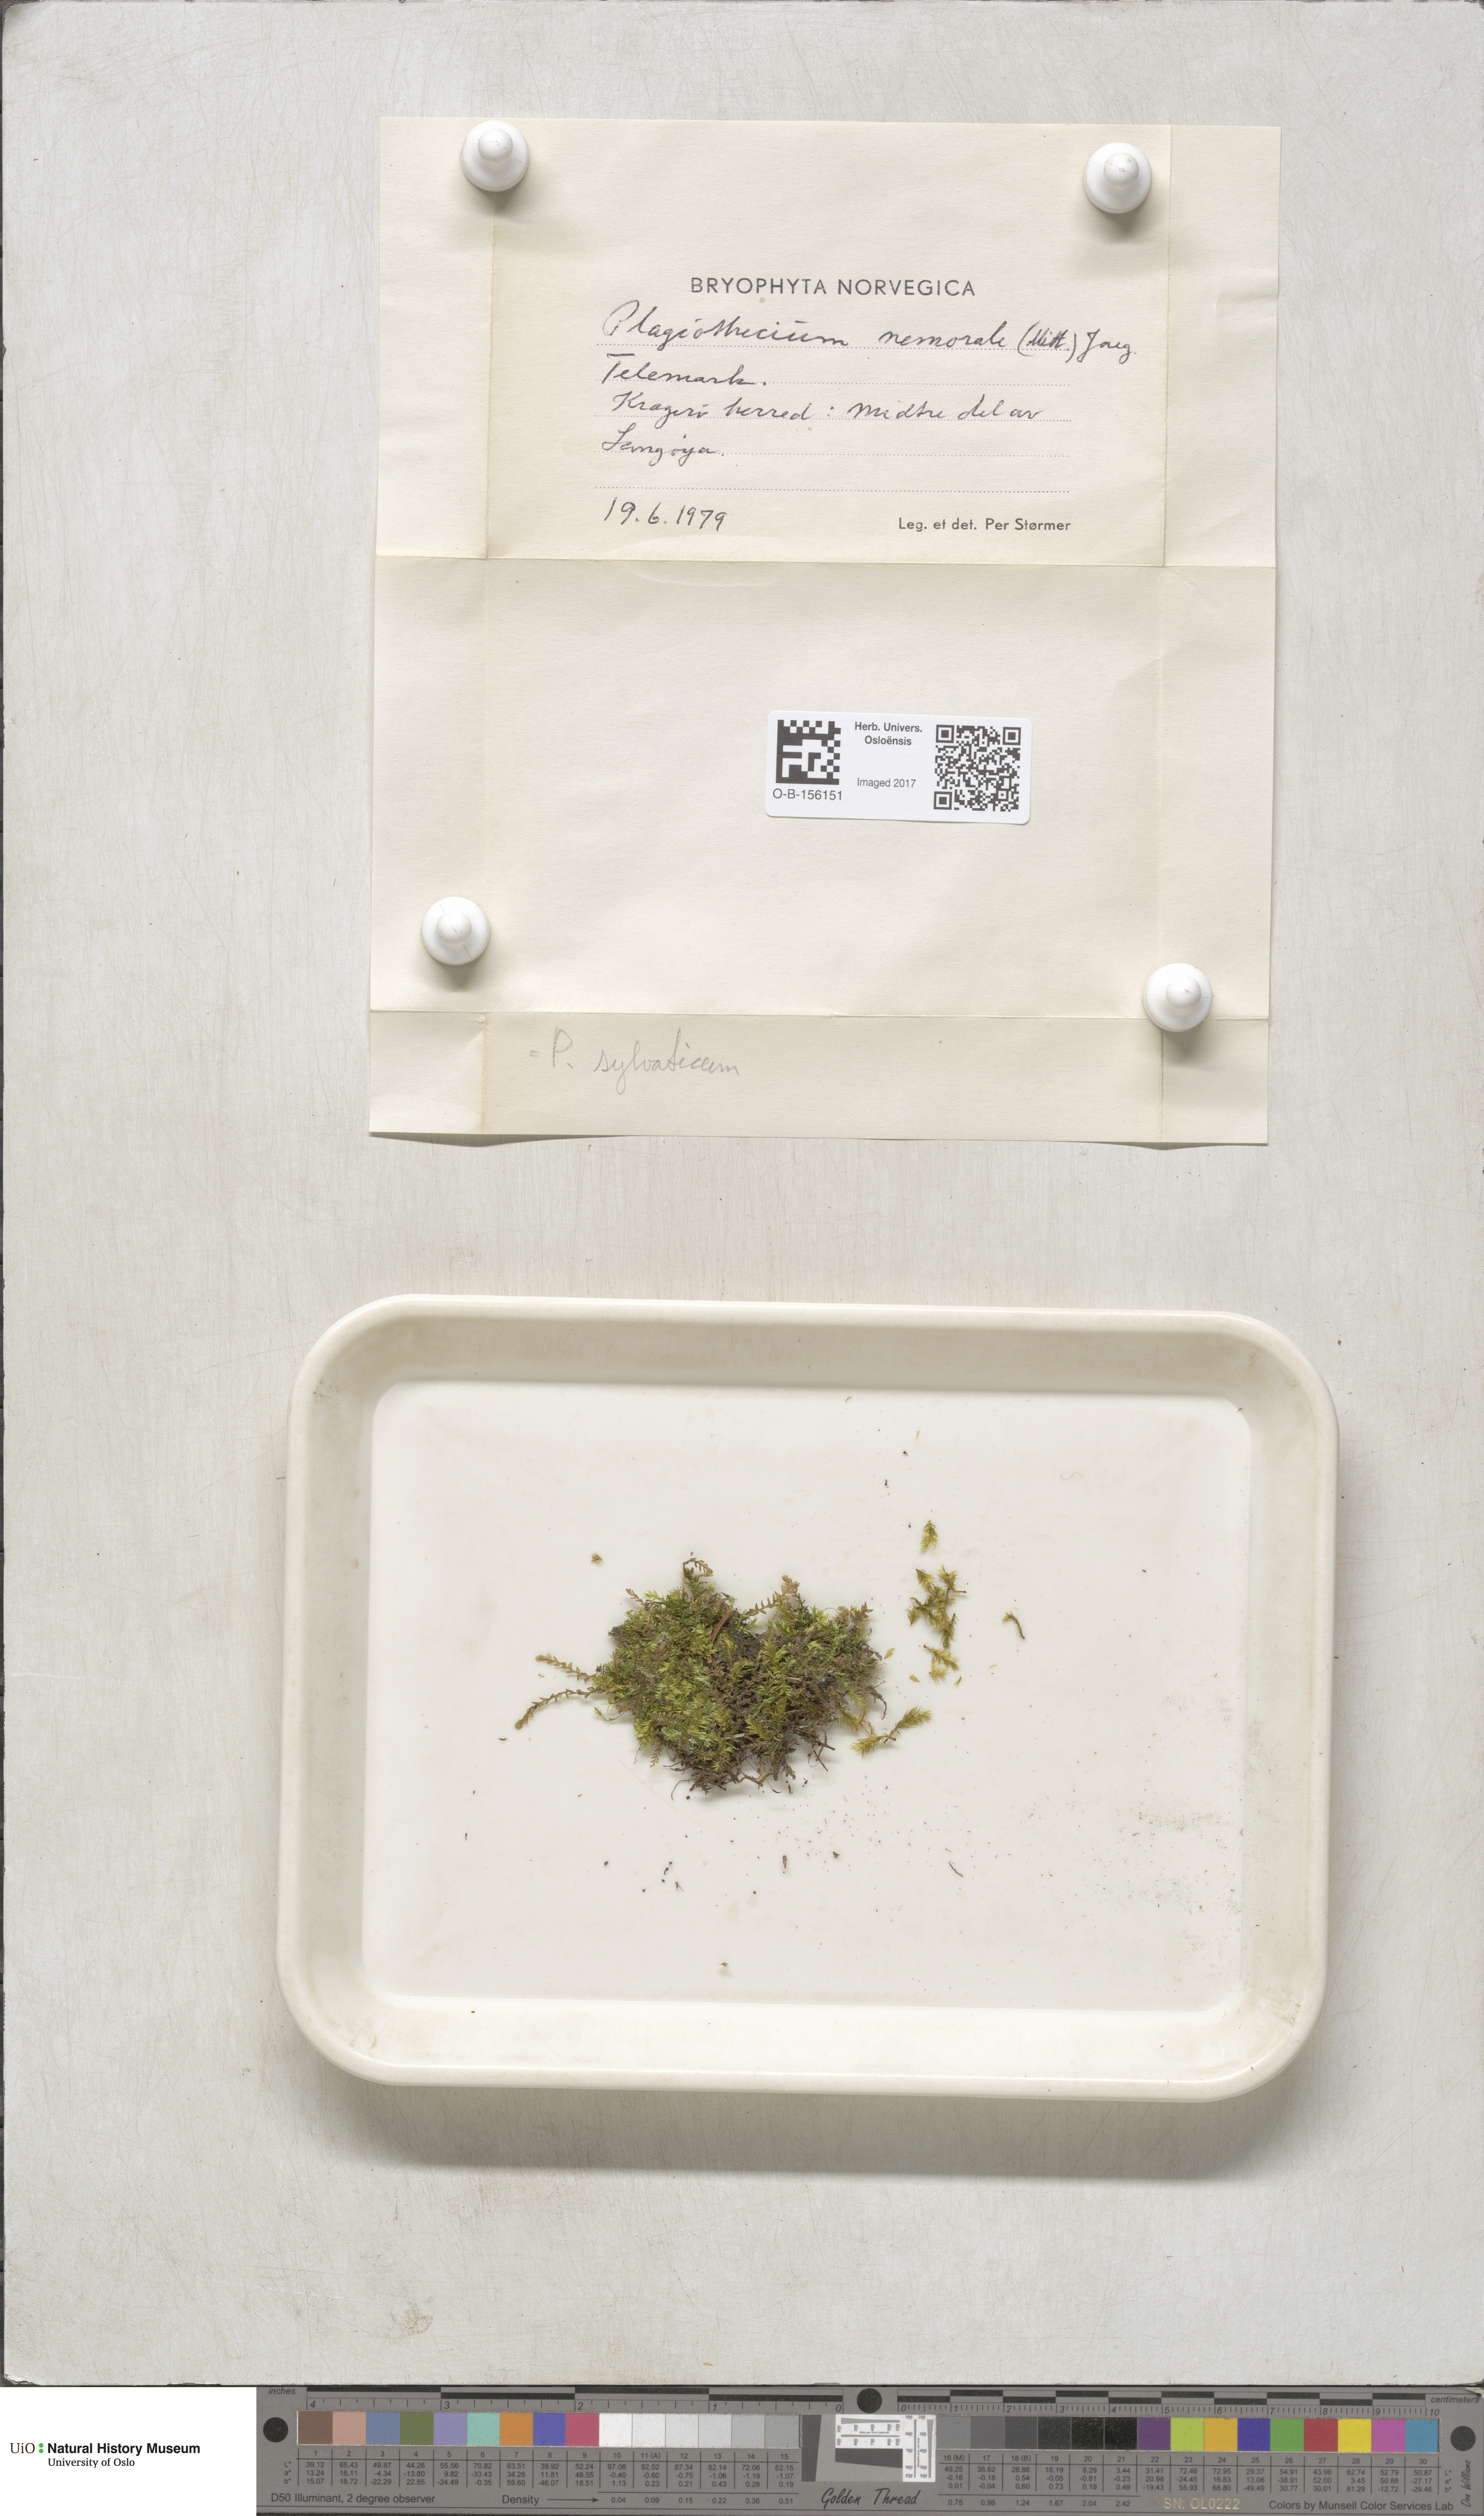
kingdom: Plantae
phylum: Bryophyta
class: Bryopsida
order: Hypnales
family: Plagiotheciaceae
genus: Plagiothecium
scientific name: Plagiothecium nemorale
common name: Woodsy silk-moss
